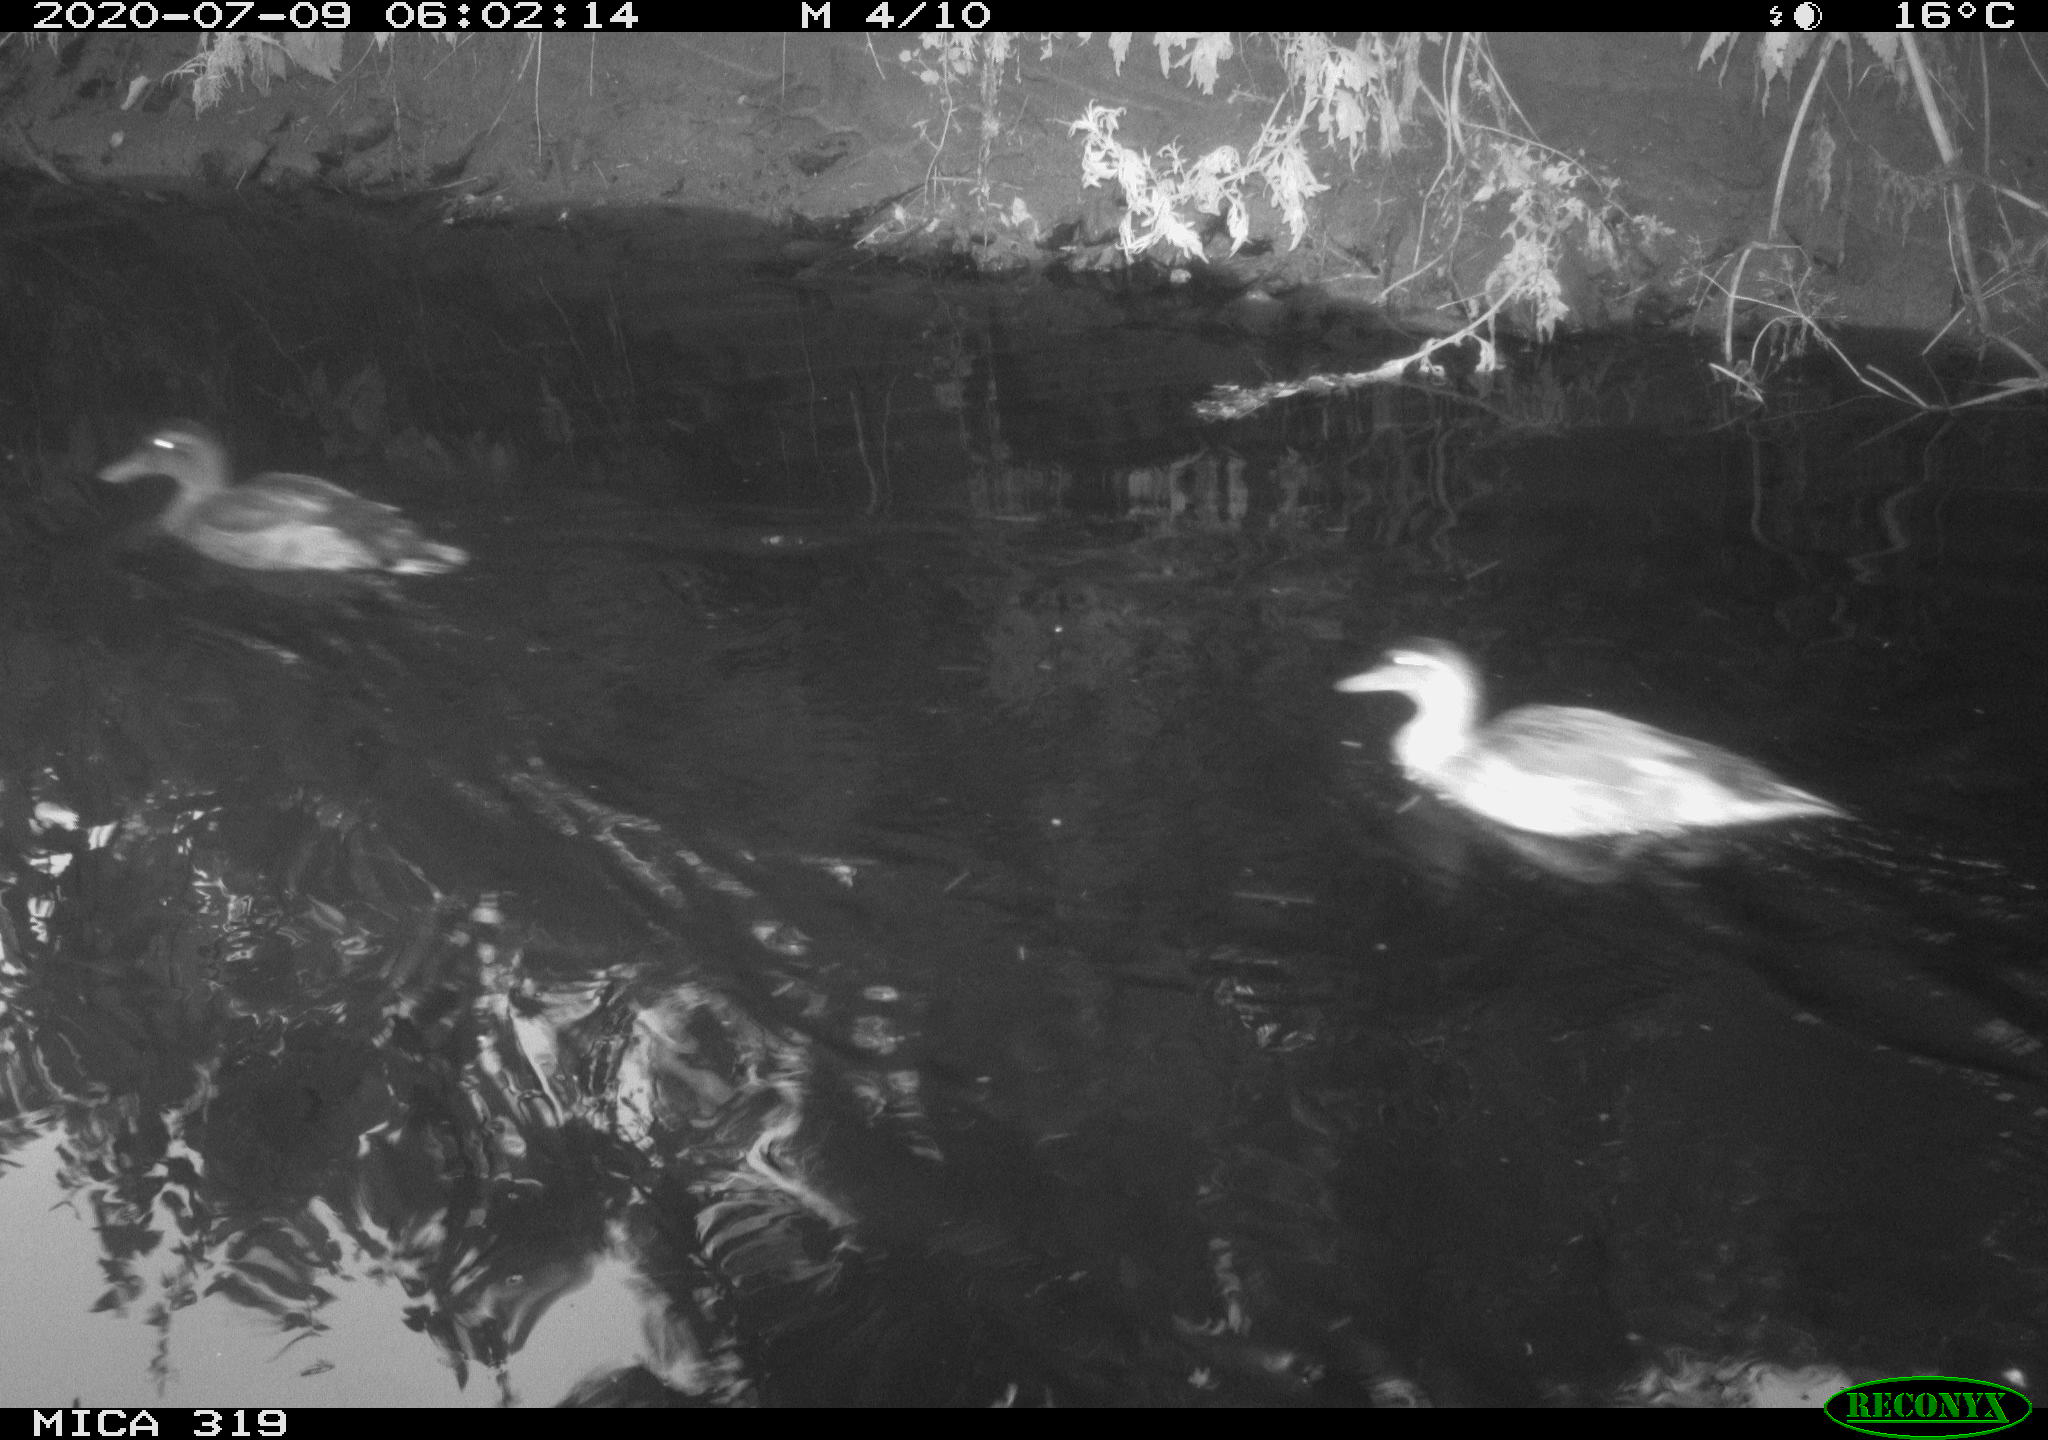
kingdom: Animalia
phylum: Chordata
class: Aves
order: Anseriformes
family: Anatidae
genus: Anas
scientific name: Anas platyrhynchos
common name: Mallard
